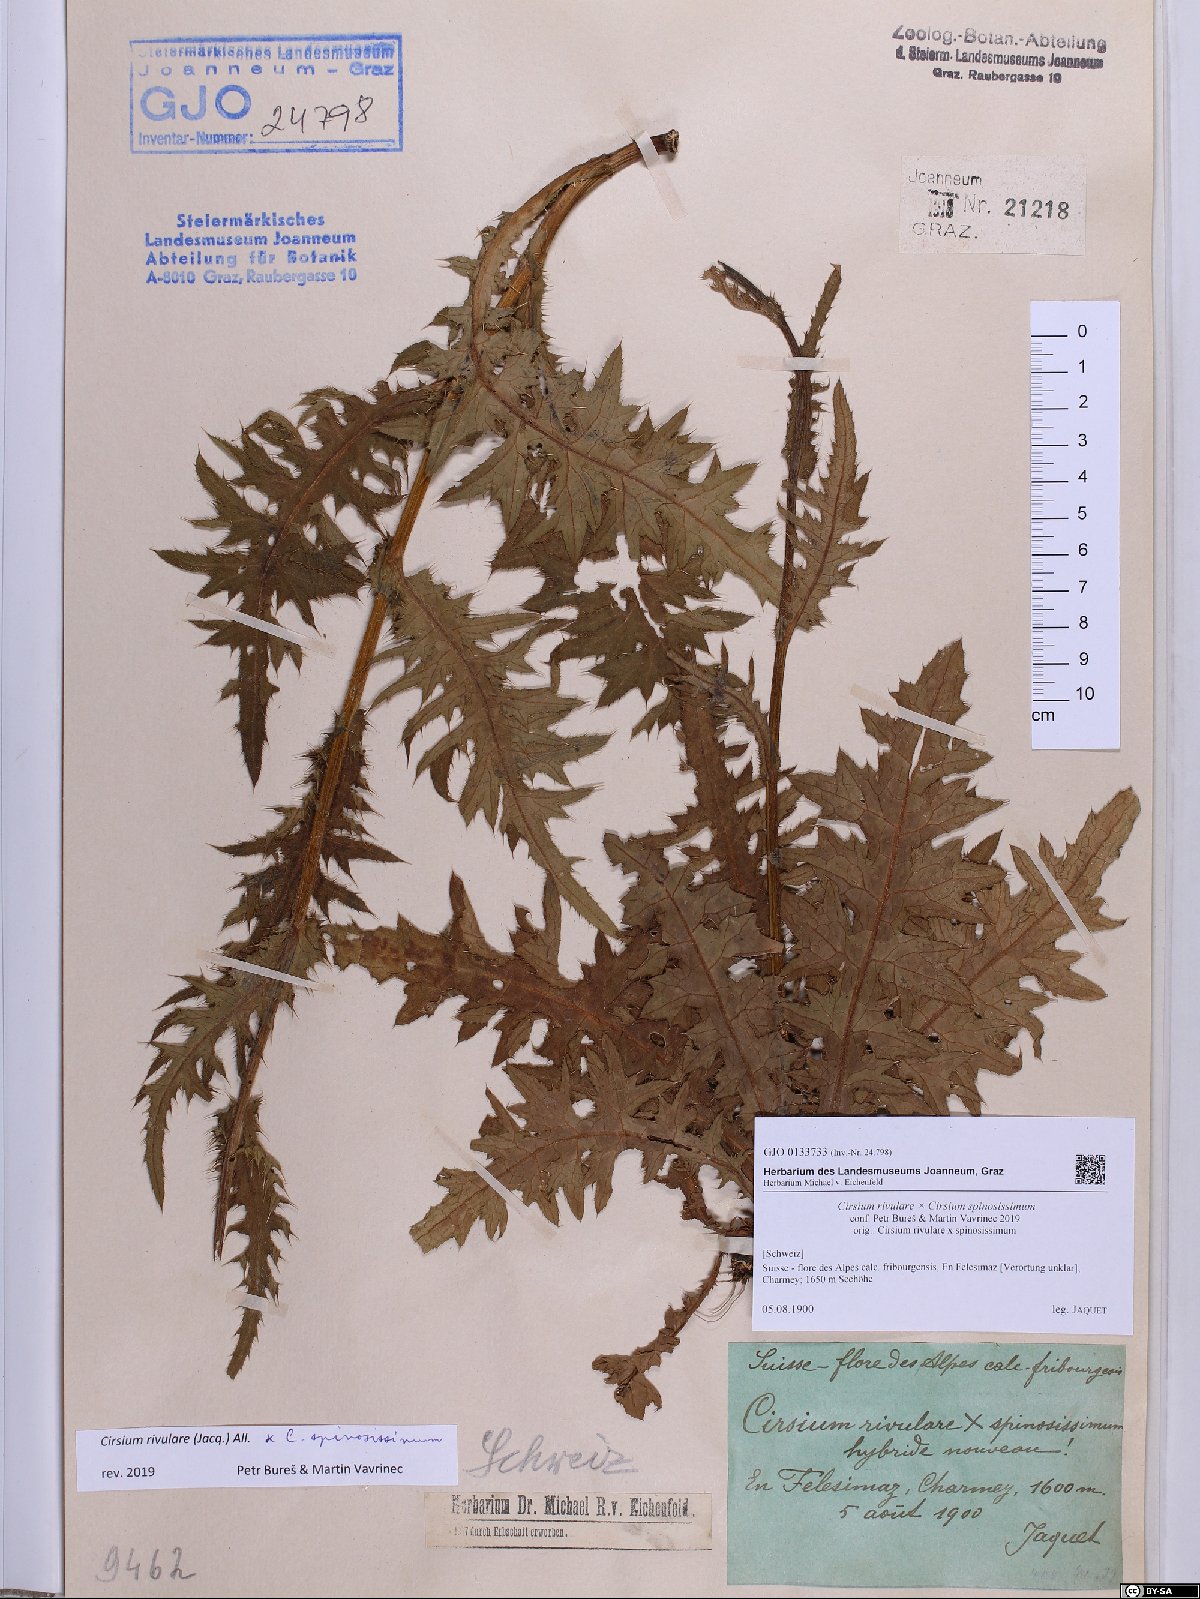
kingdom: Plantae
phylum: Tracheophyta
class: Magnoliopsida
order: Asterales
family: Asteraceae
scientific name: Asteraceae
